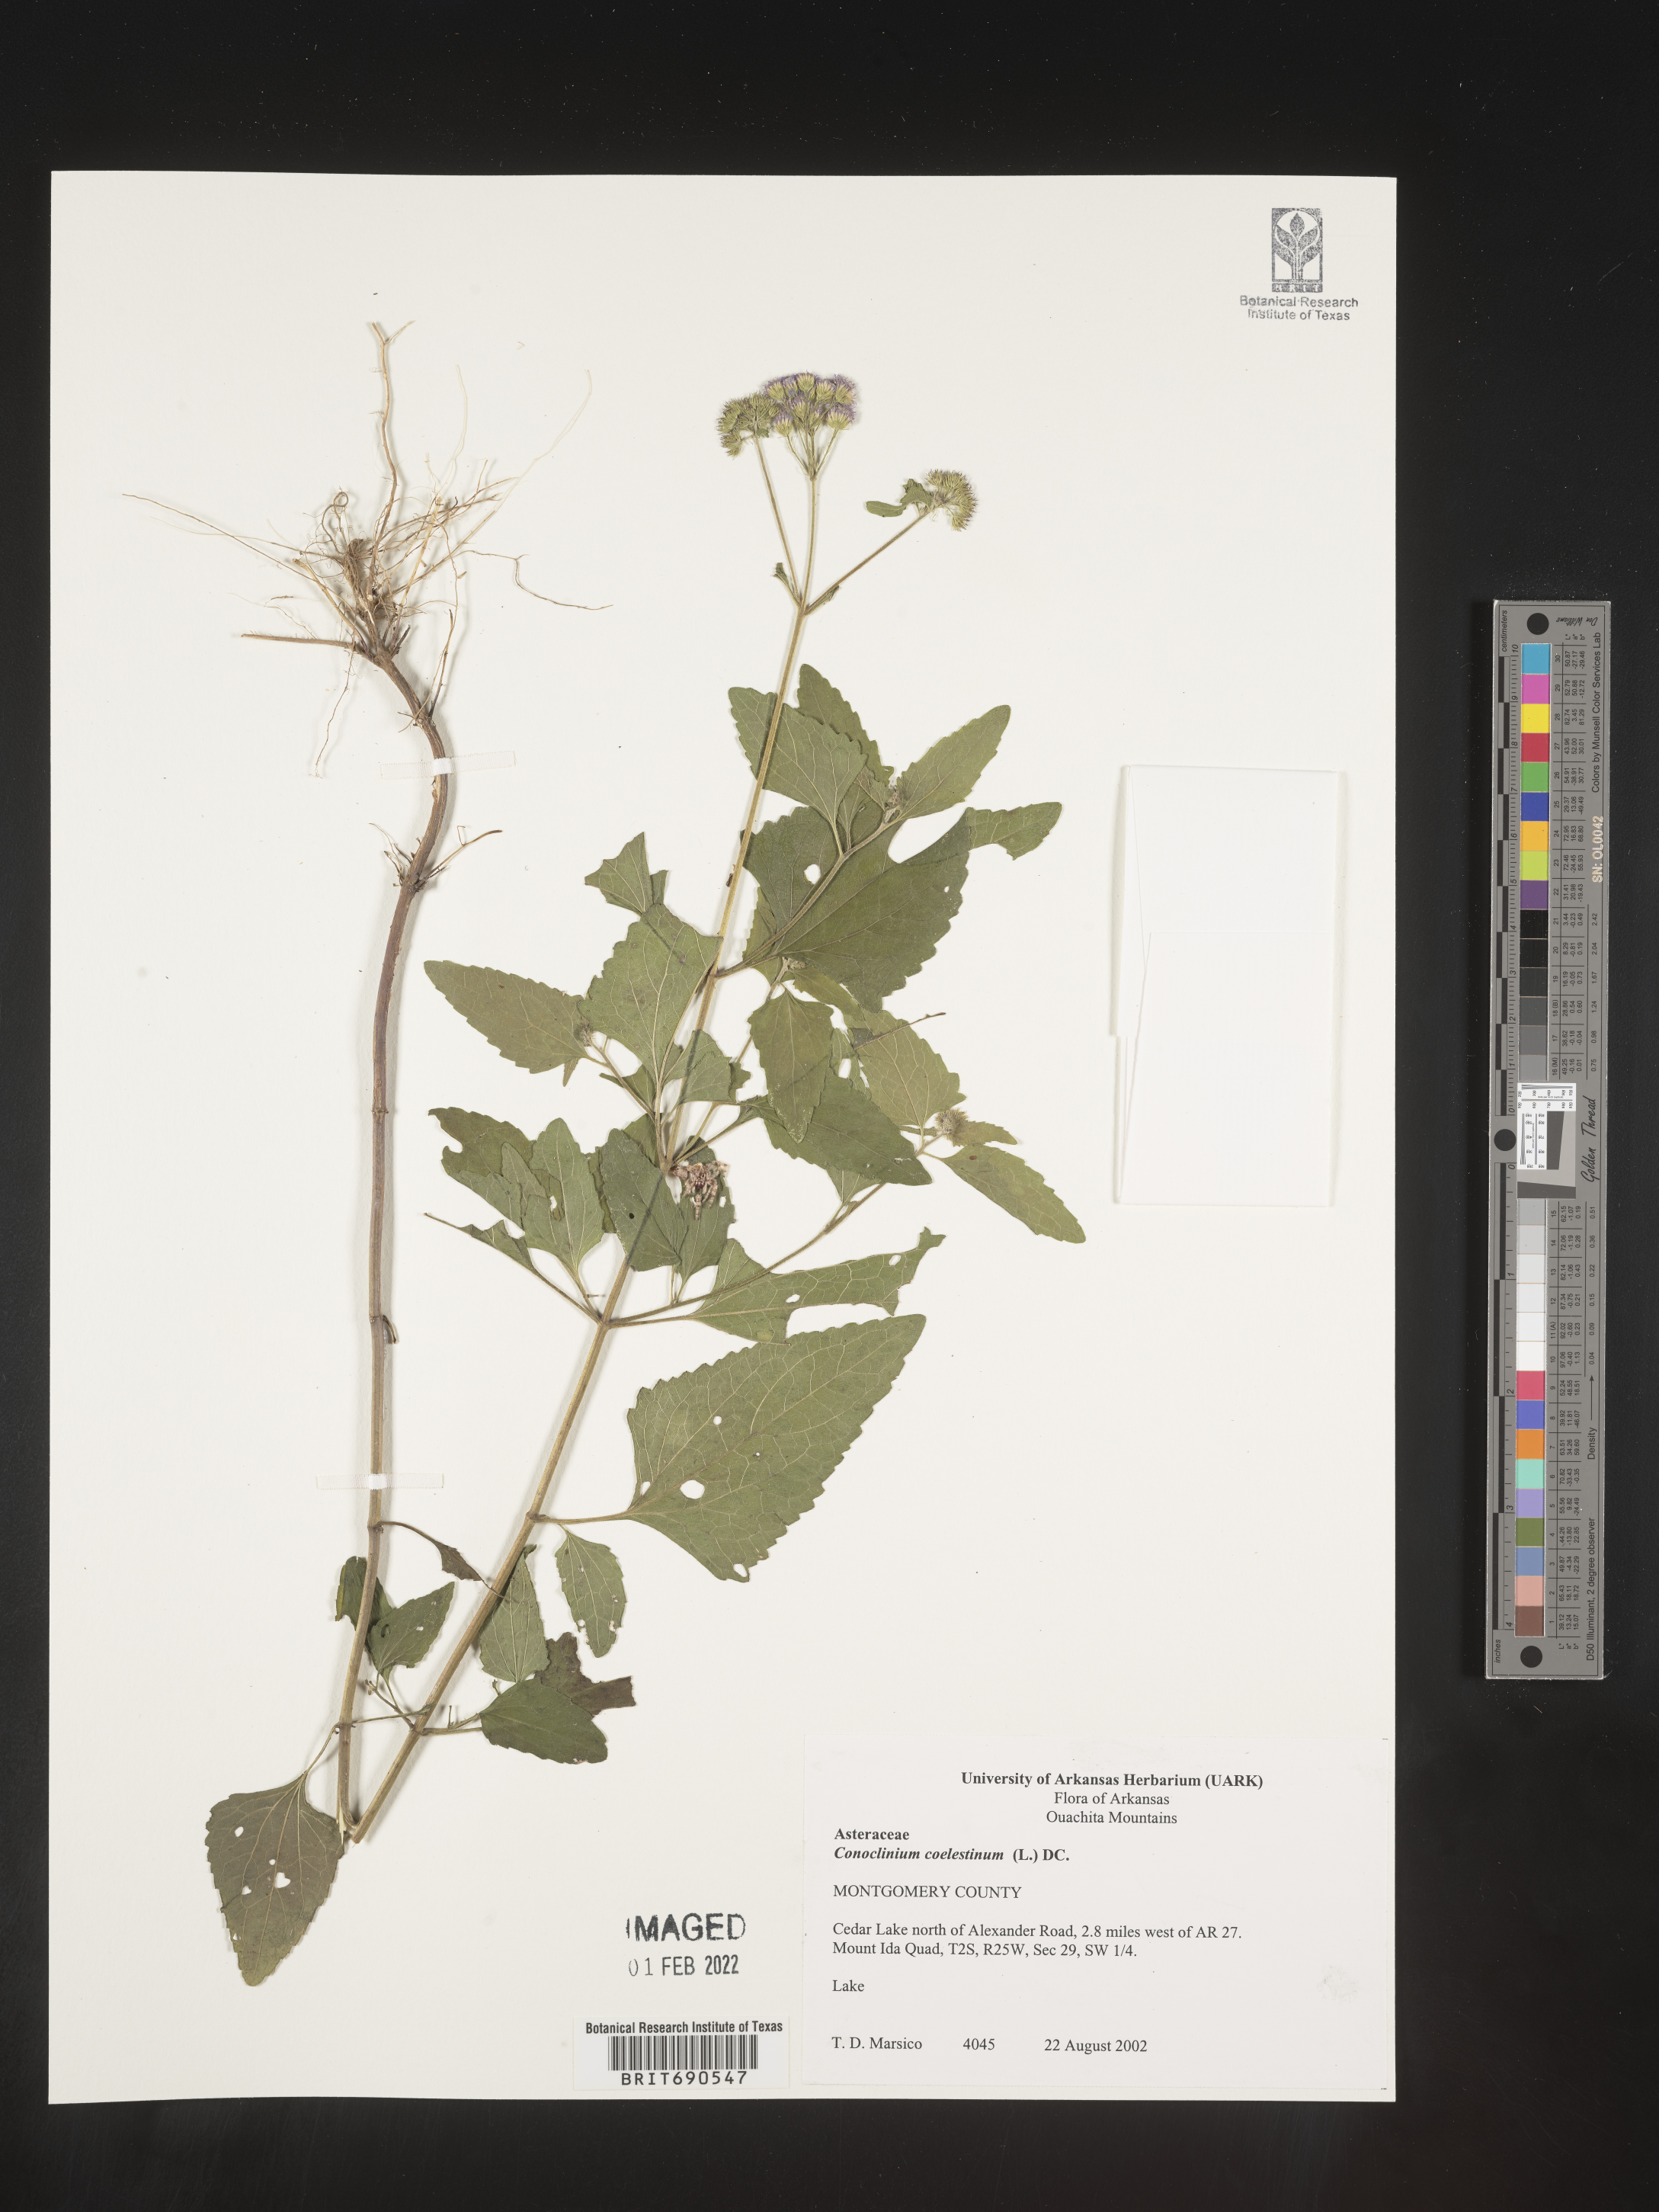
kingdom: Plantae
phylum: Tracheophyta
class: Magnoliopsida
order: Asterales
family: Asteraceae
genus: Conoclinium
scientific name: Conoclinium coelestinum
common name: Blue mistflower
